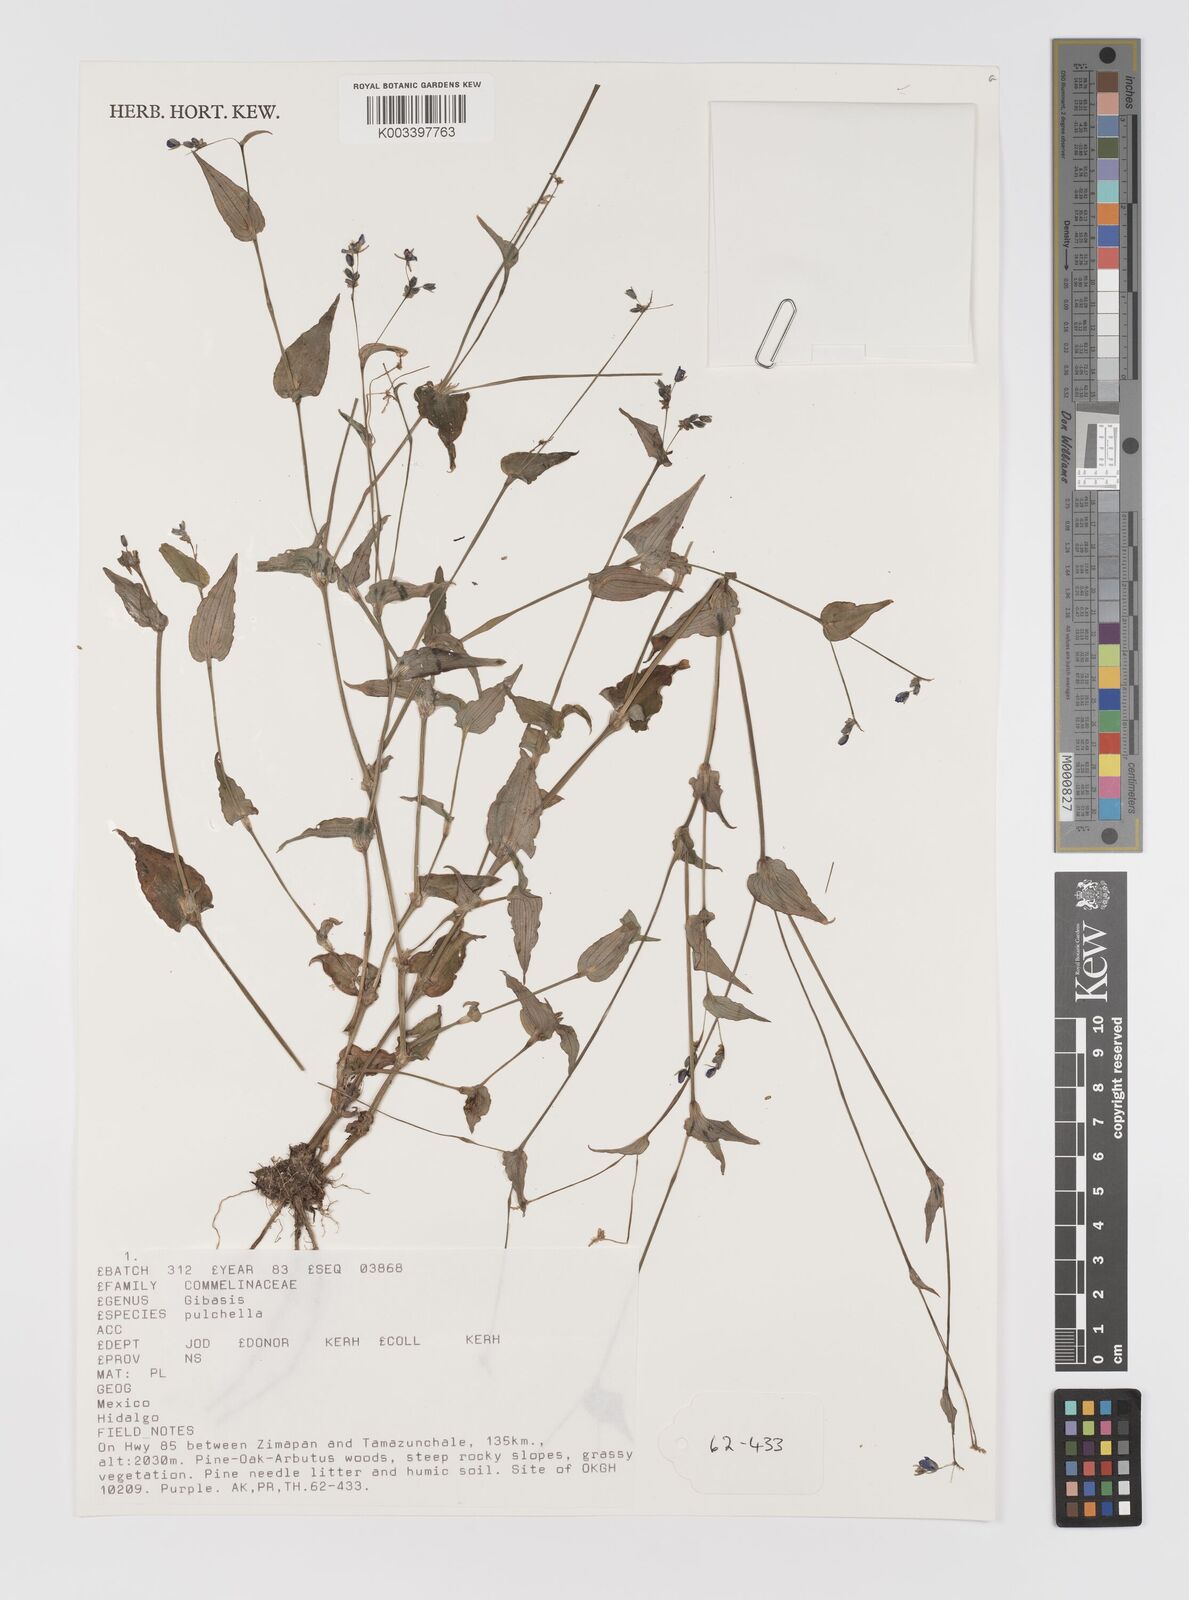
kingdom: Plantae
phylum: Tracheophyta
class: Liliopsida
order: Commelinales
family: Commelinaceae
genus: Gibasis
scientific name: Gibasis pulchella
